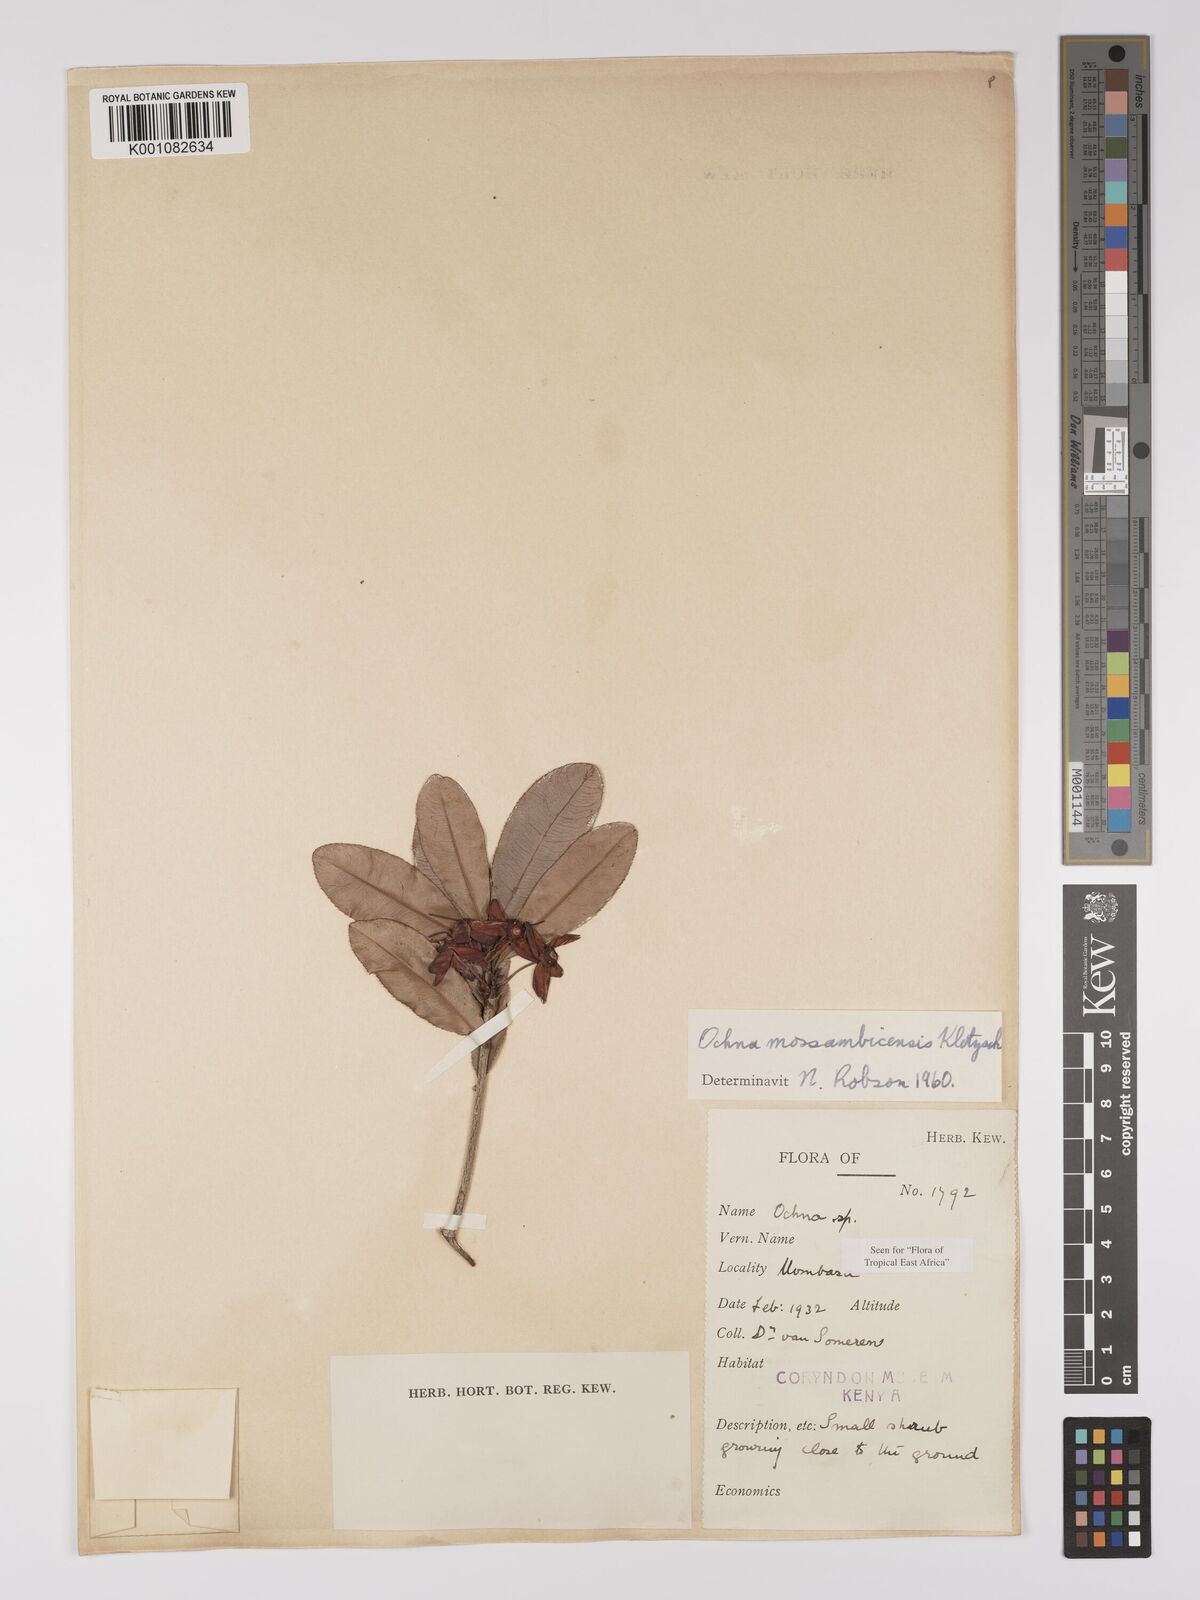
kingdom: Plantae
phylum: Tracheophyta
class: Magnoliopsida
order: Malpighiales
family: Ochnaceae
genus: Ochna
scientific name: Ochna atropurpurea
